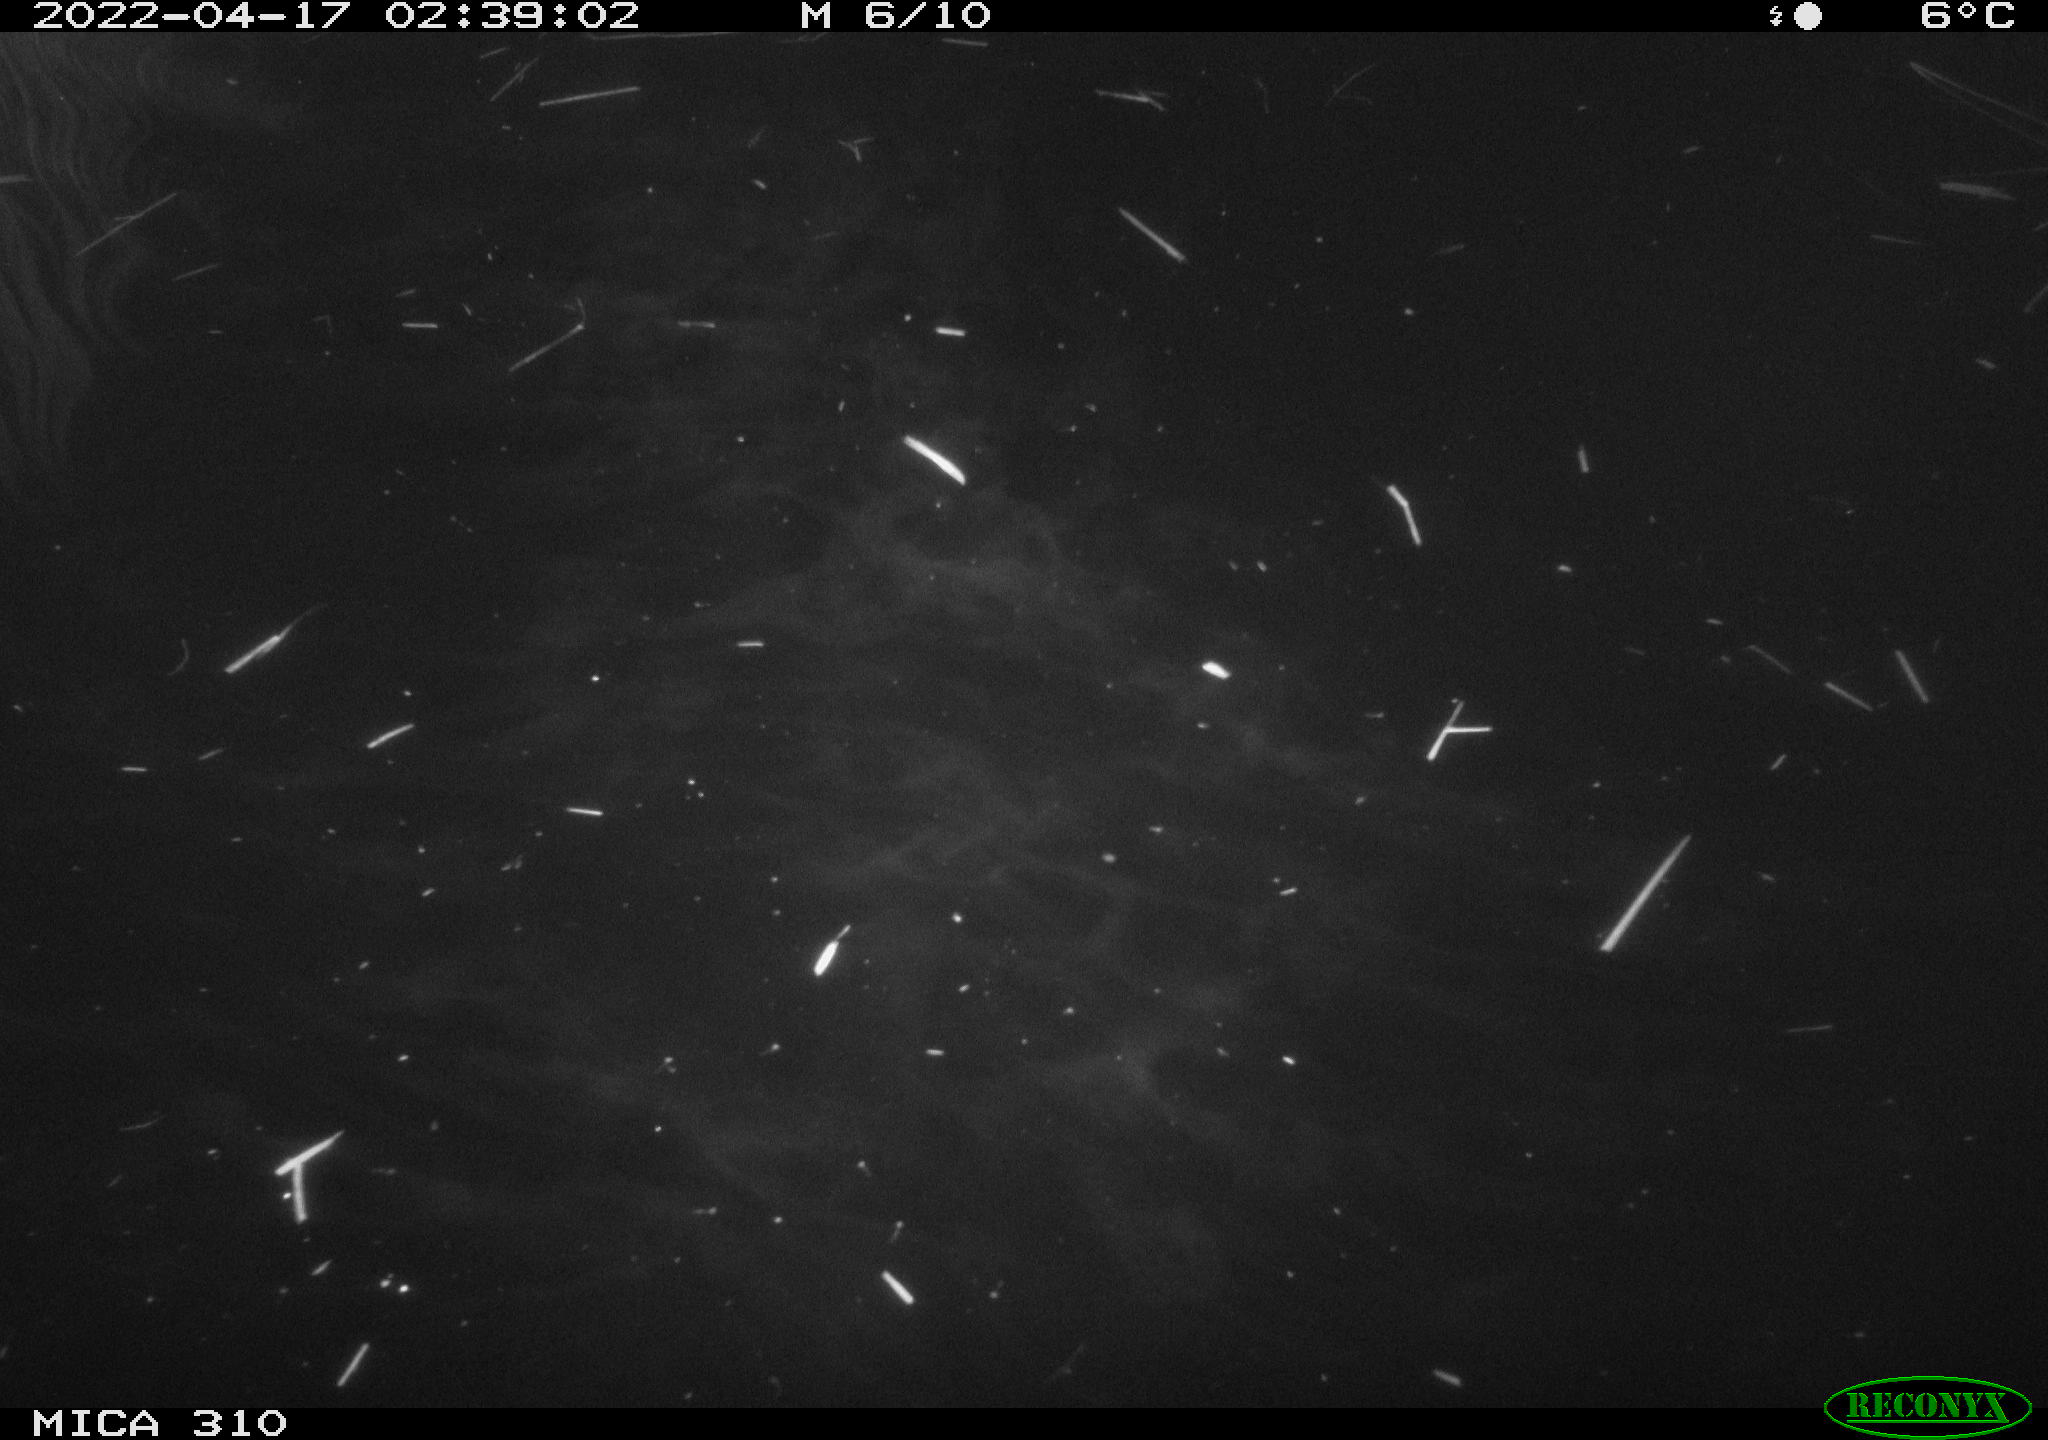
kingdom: Animalia
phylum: Chordata
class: Aves
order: Anseriformes
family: Anatidae
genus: Anas
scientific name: Anas platyrhynchos
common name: Mallard
